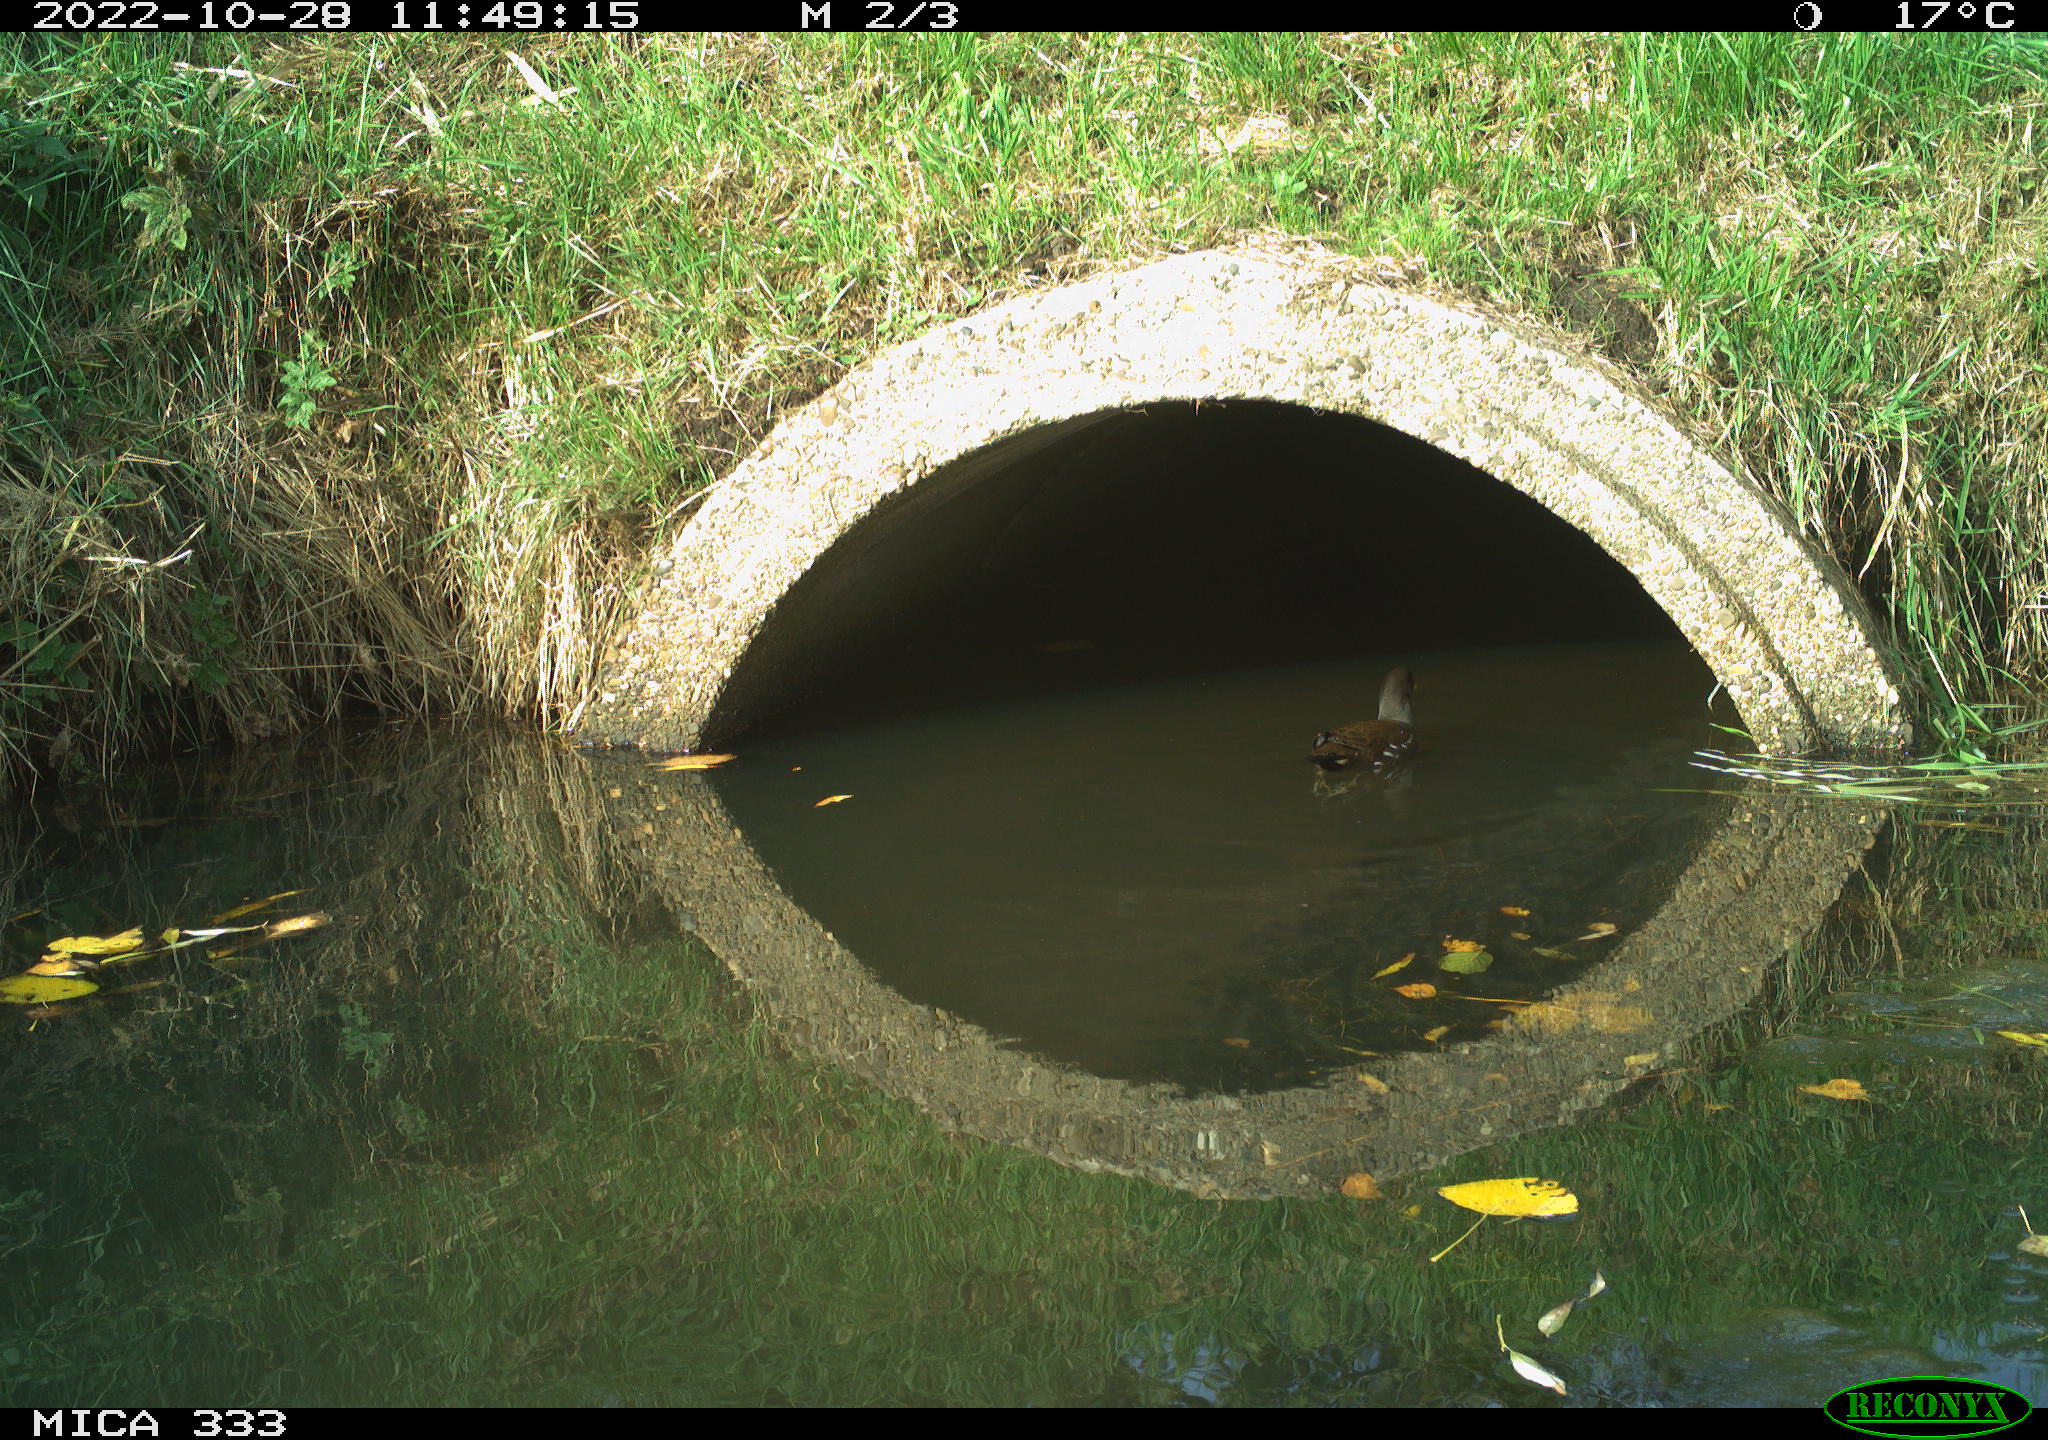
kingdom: Animalia
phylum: Chordata
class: Aves
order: Gruiformes
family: Rallidae
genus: Gallinula
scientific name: Gallinula chloropus
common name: Common moorhen
